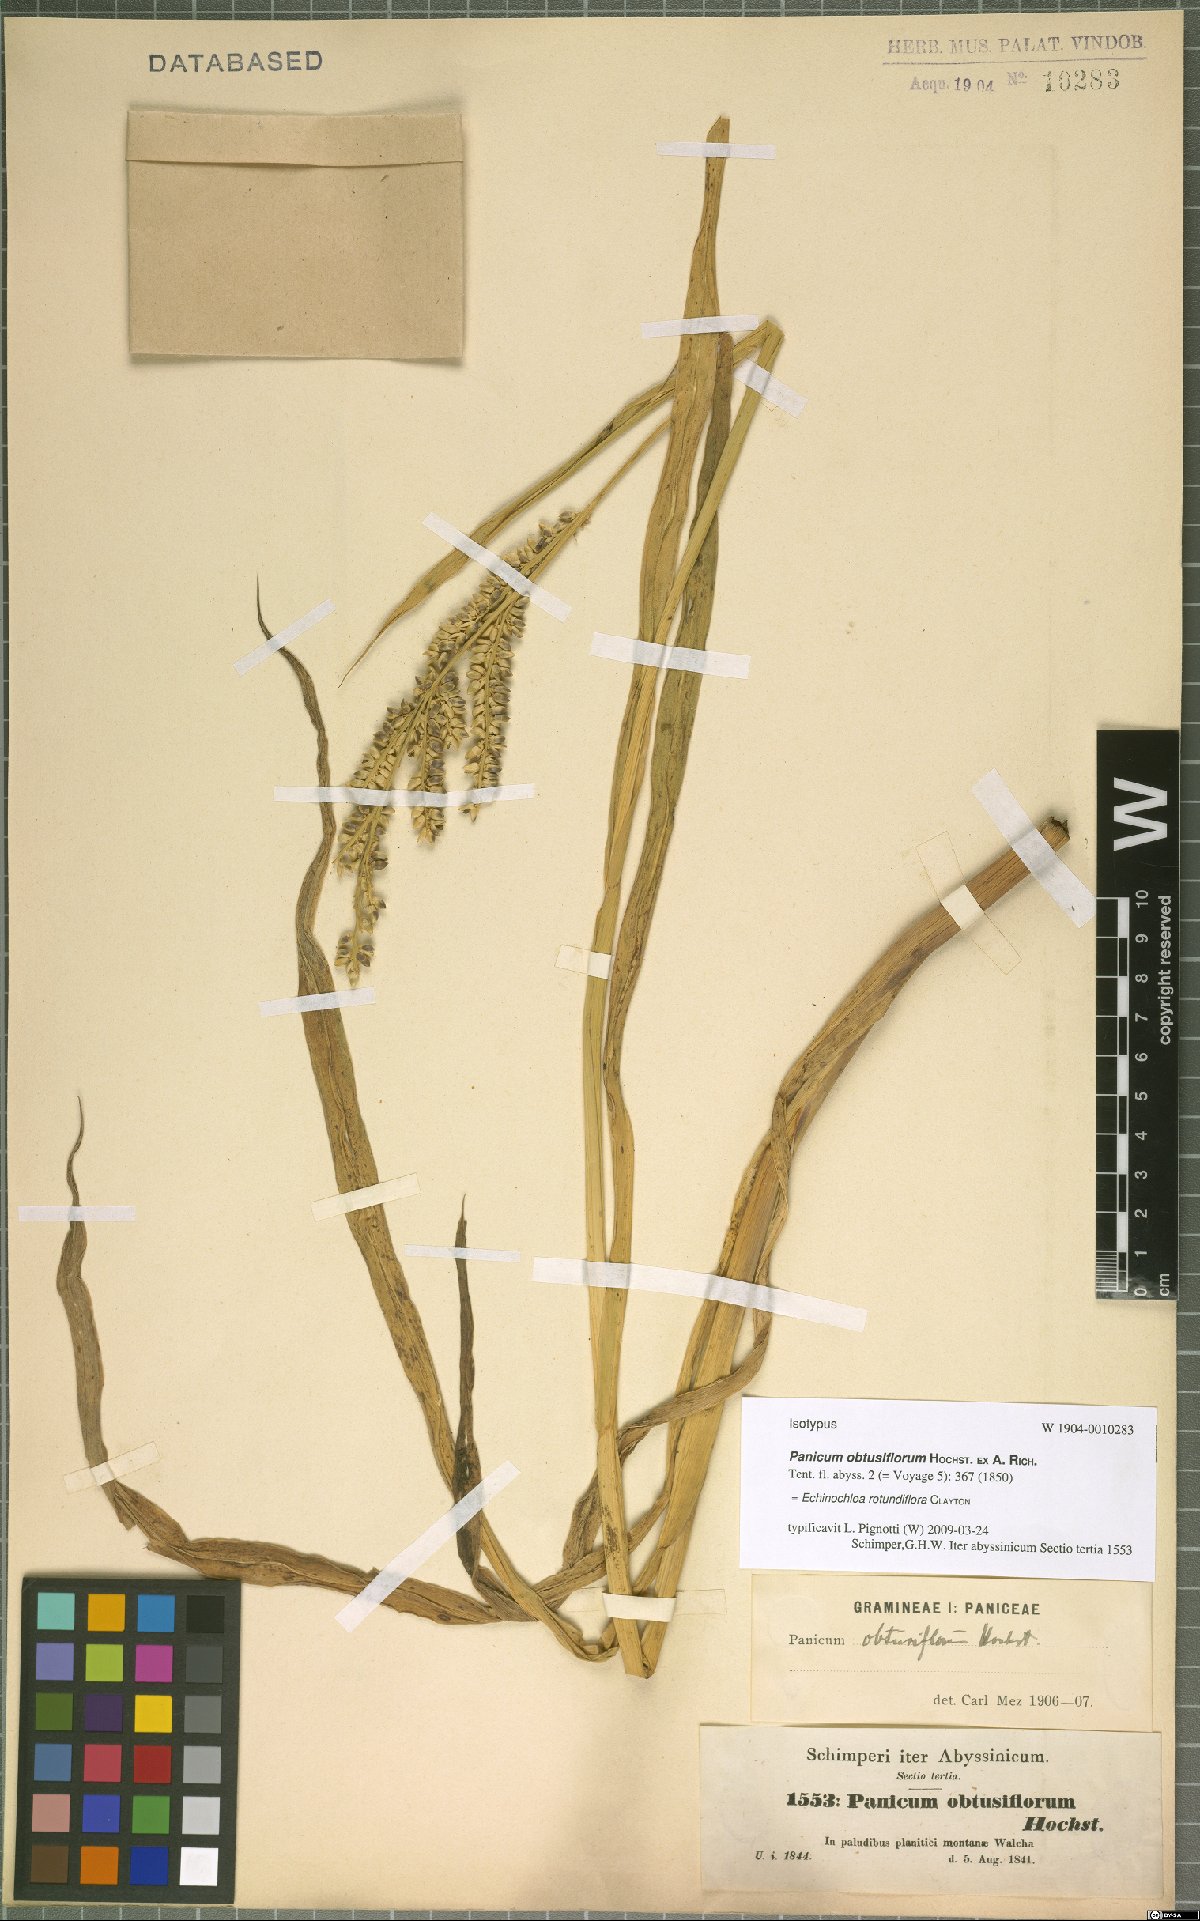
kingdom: Plantae
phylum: Tracheophyta
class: Liliopsida
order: Poales
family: Poaceae
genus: Echinochloa
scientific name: Echinochloa rotundiflora
